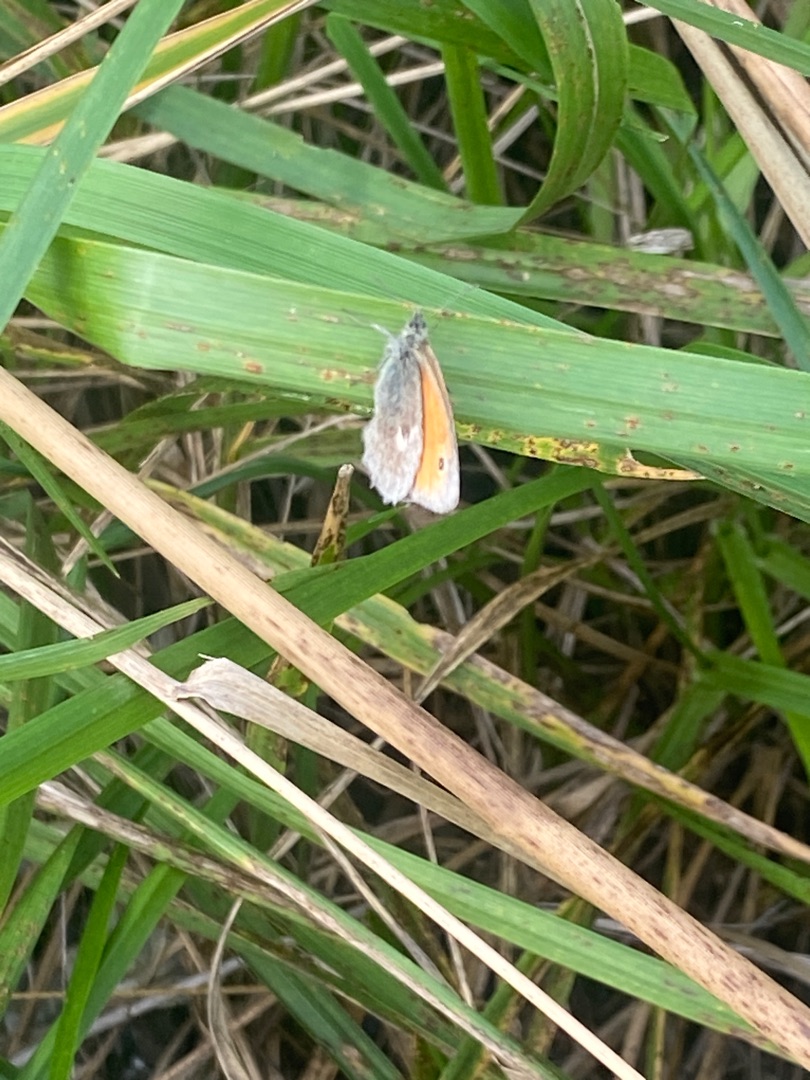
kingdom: Animalia
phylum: Arthropoda
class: Insecta
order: Lepidoptera
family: Nymphalidae
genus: Coenonympha
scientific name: Coenonympha pamphilus
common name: Okkergul randøje
